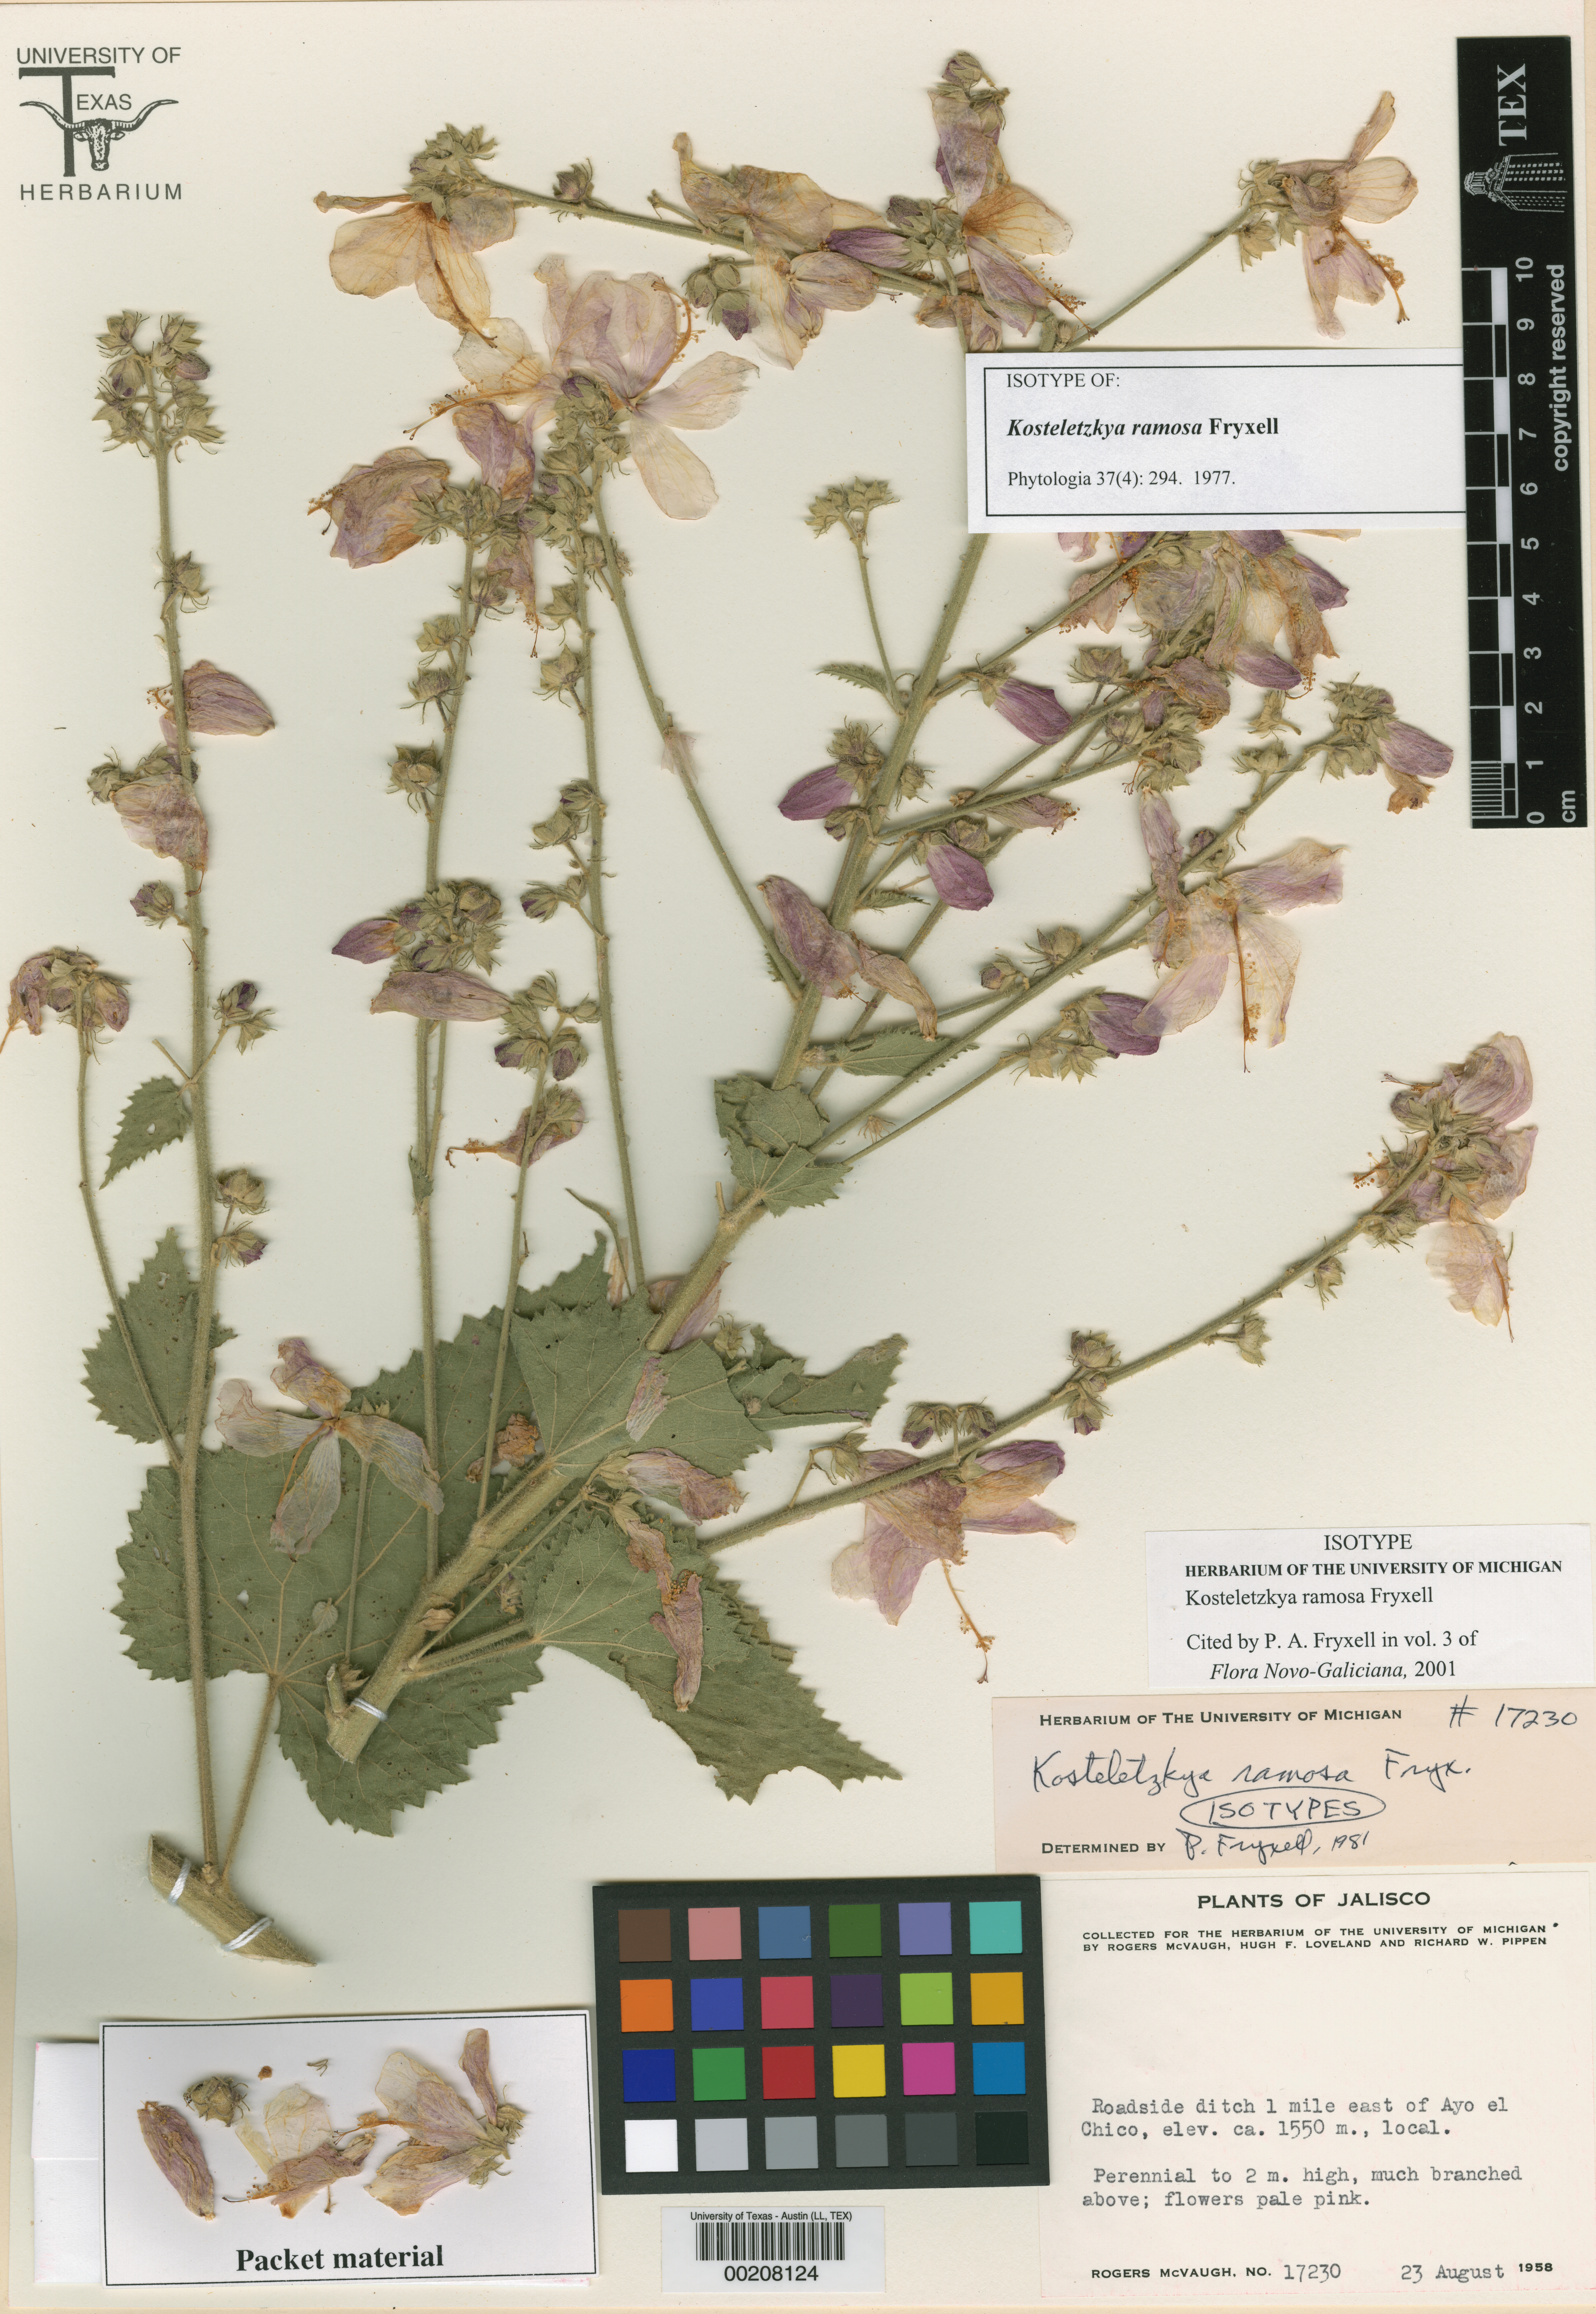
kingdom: Plantae
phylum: Tracheophyta
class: Magnoliopsida
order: Malvales
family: Malvaceae
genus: Kosteletzkya
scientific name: Kosteletzkya ramosa
